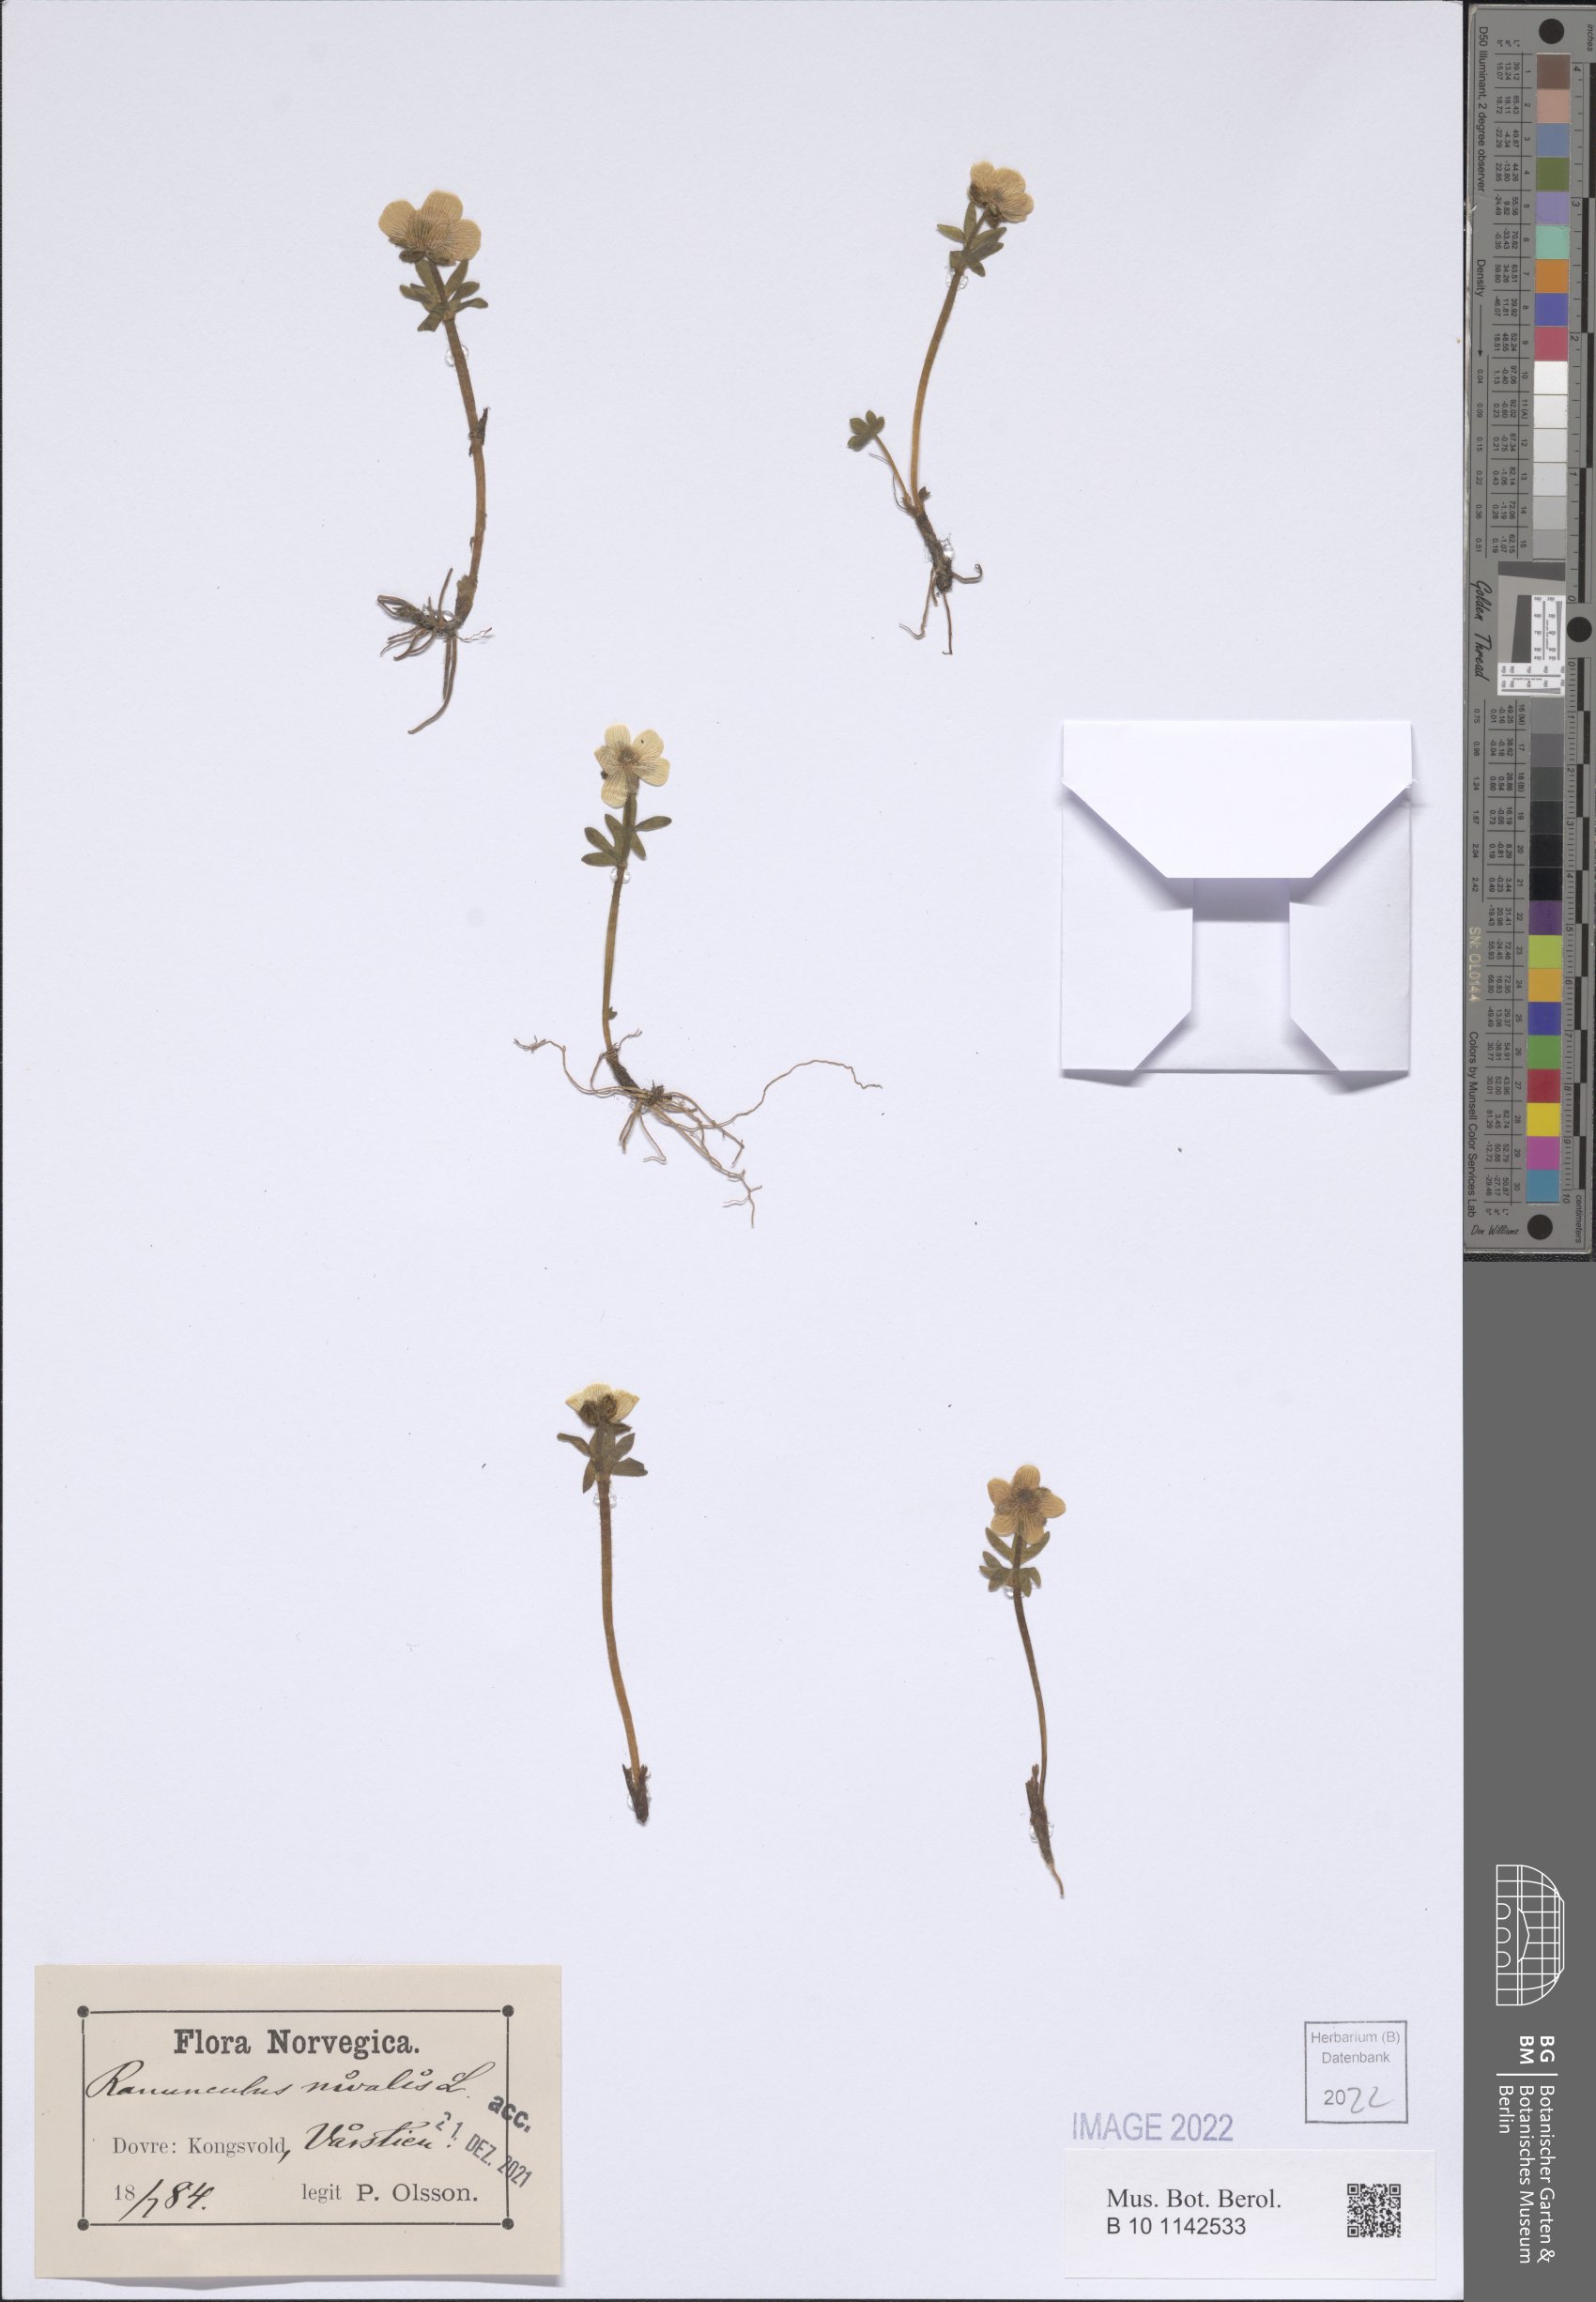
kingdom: Plantae
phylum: Tracheophyta
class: Magnoliopsida
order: Ranunculales
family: Ranunculaceae
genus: Ranunculus
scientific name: Ranunculus nivalis
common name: Snow buttercup
